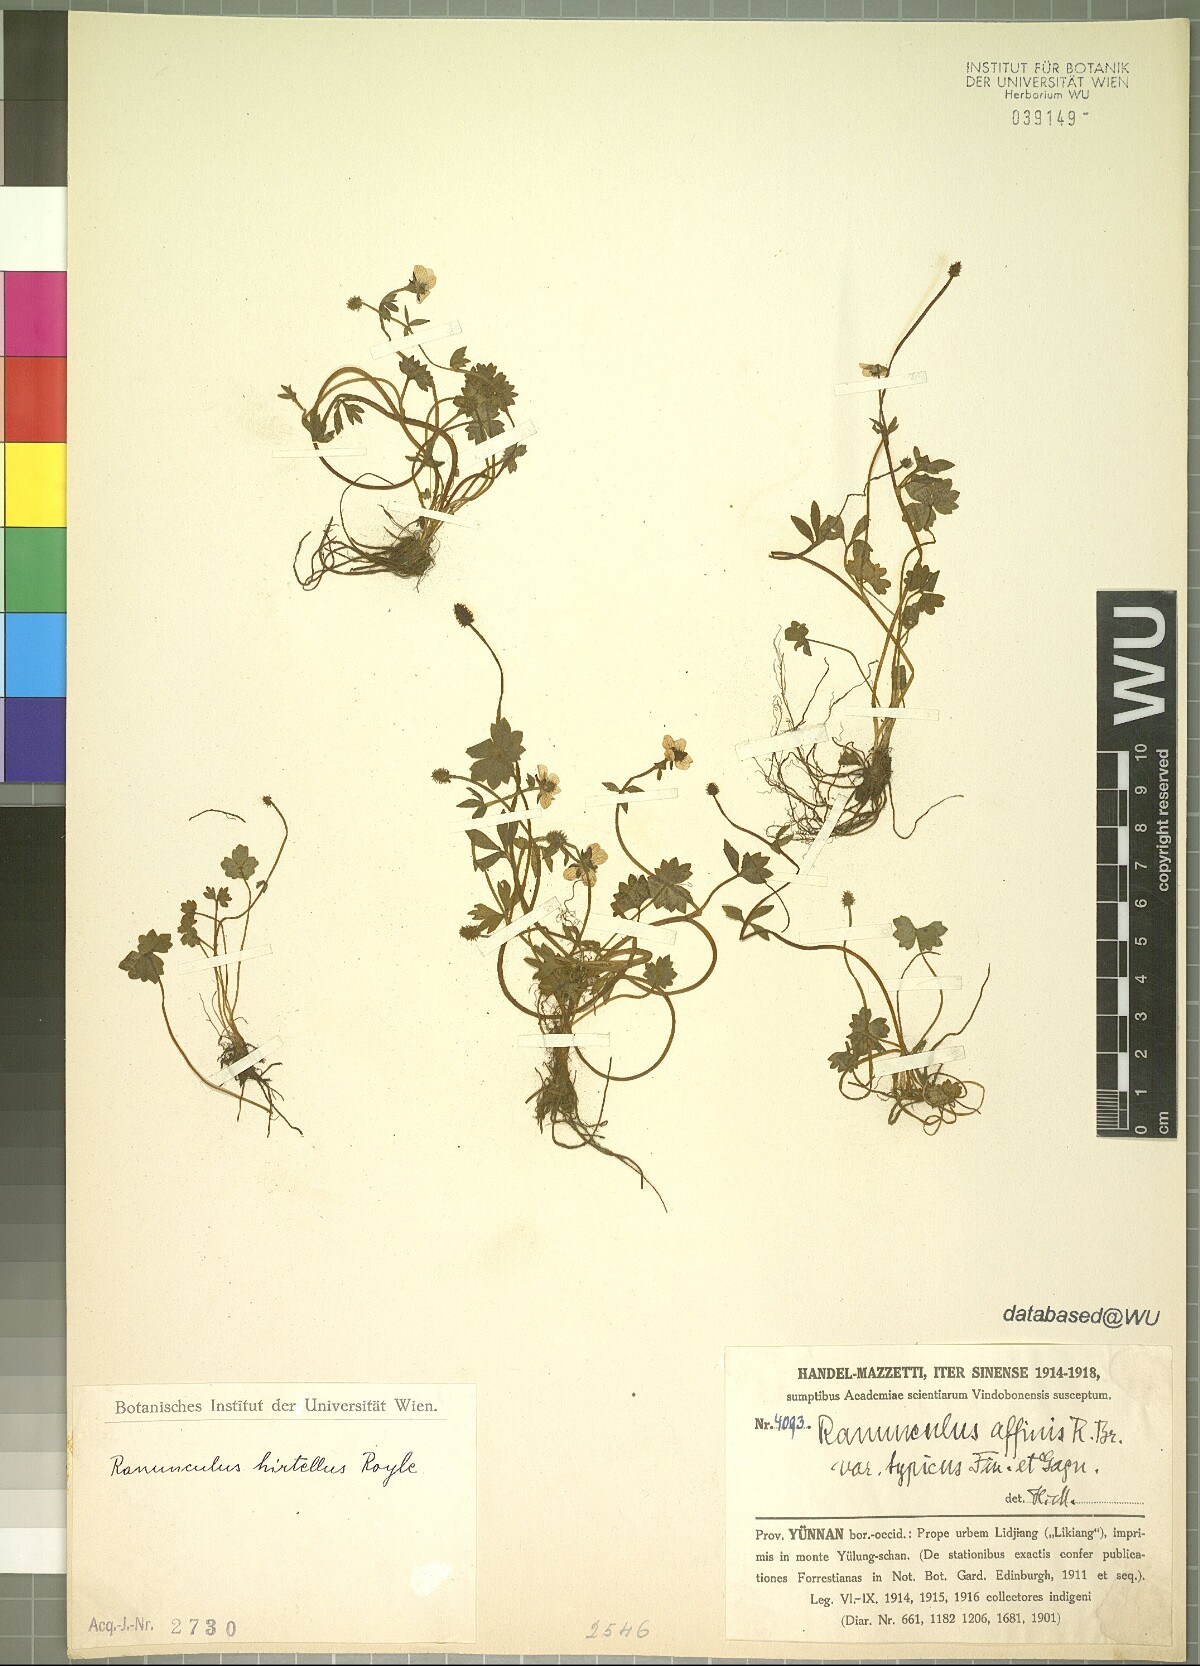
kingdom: Plantae
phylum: Tracheophyta
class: Magnoliopsida
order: Ranunculales
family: Ranunculaceae
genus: Ranunculus
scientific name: Ranunculus hirtellus
